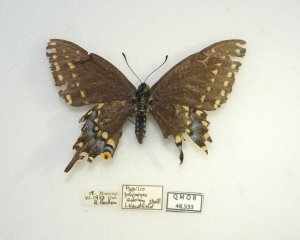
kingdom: Animalia
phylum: Arthropoda
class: Insecta
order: Lepidoptera
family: Papilionidae
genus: Papilio
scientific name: Papilio polyxenes
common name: Black Swallowtail
